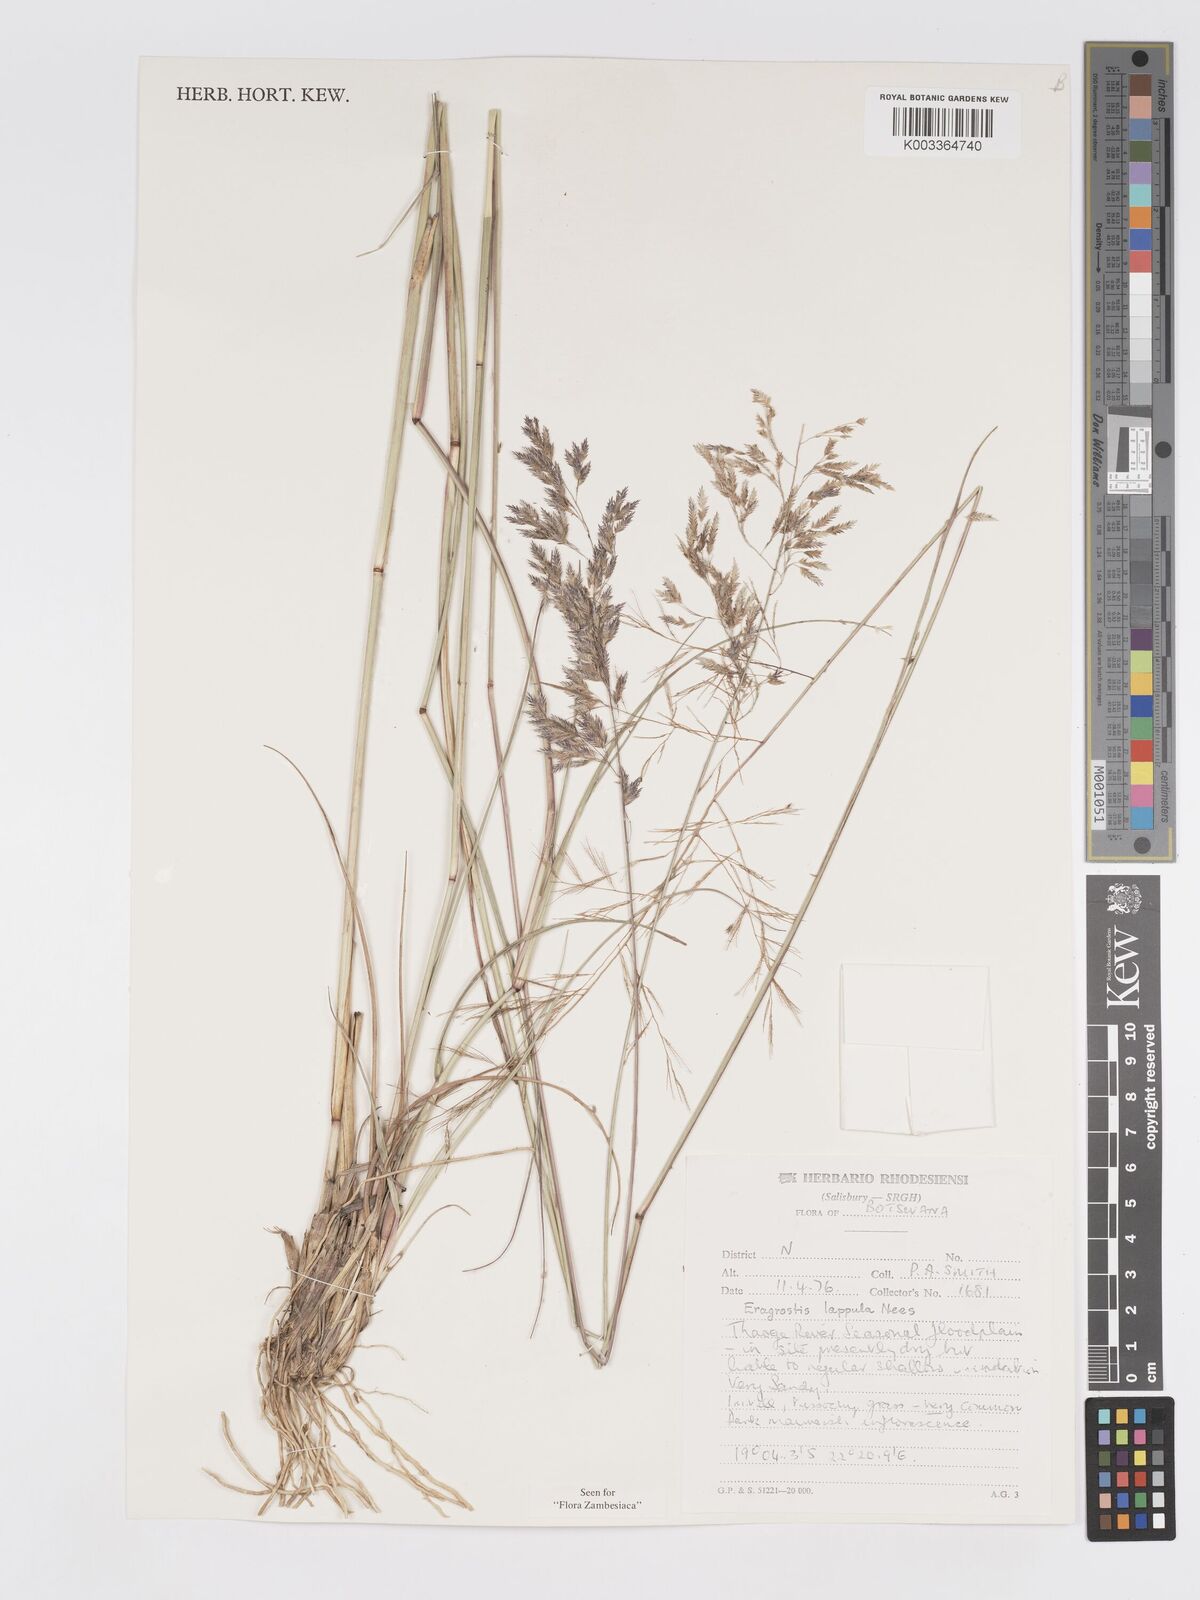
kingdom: Plantae
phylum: Tracheophyta
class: Liliopsida
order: Poales
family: Poaceae
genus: Eragrostis
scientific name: Eragrostis lappula
